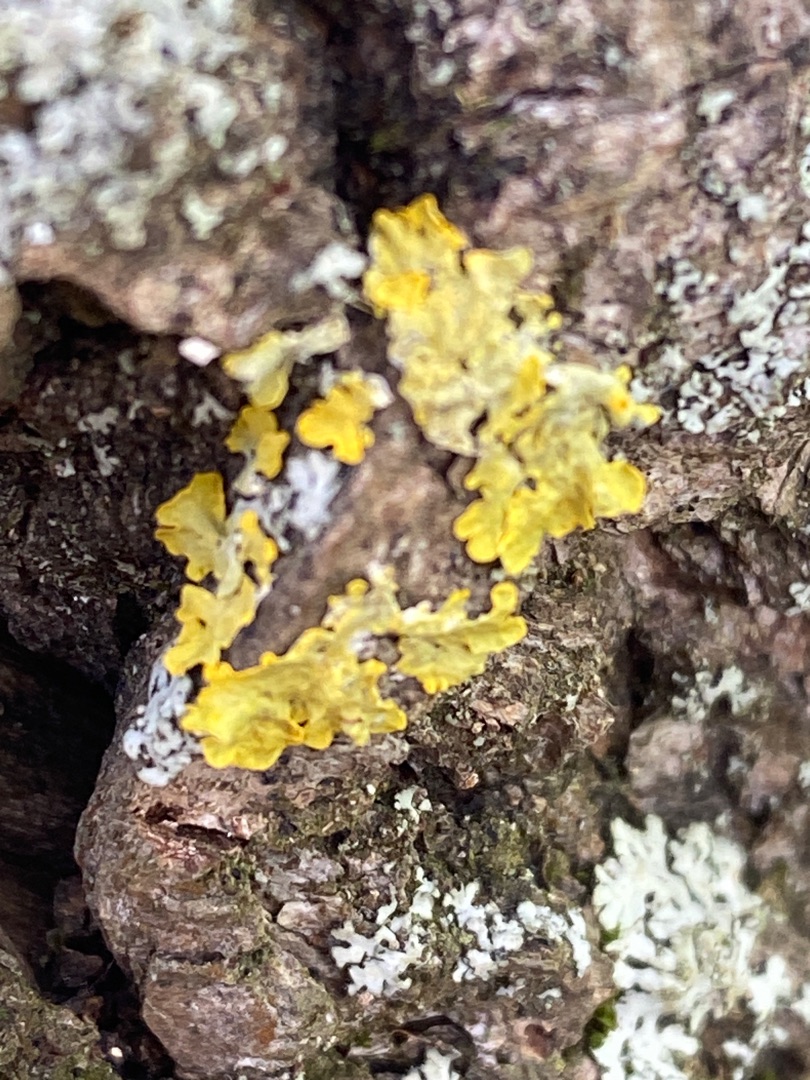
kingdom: Fungi
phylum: Ascomycota
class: Lecanoromycetes
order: Teloschistales
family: Teloschistaceae
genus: Xanthoria
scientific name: Xanthoria parietina
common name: Almindelig væggelav
